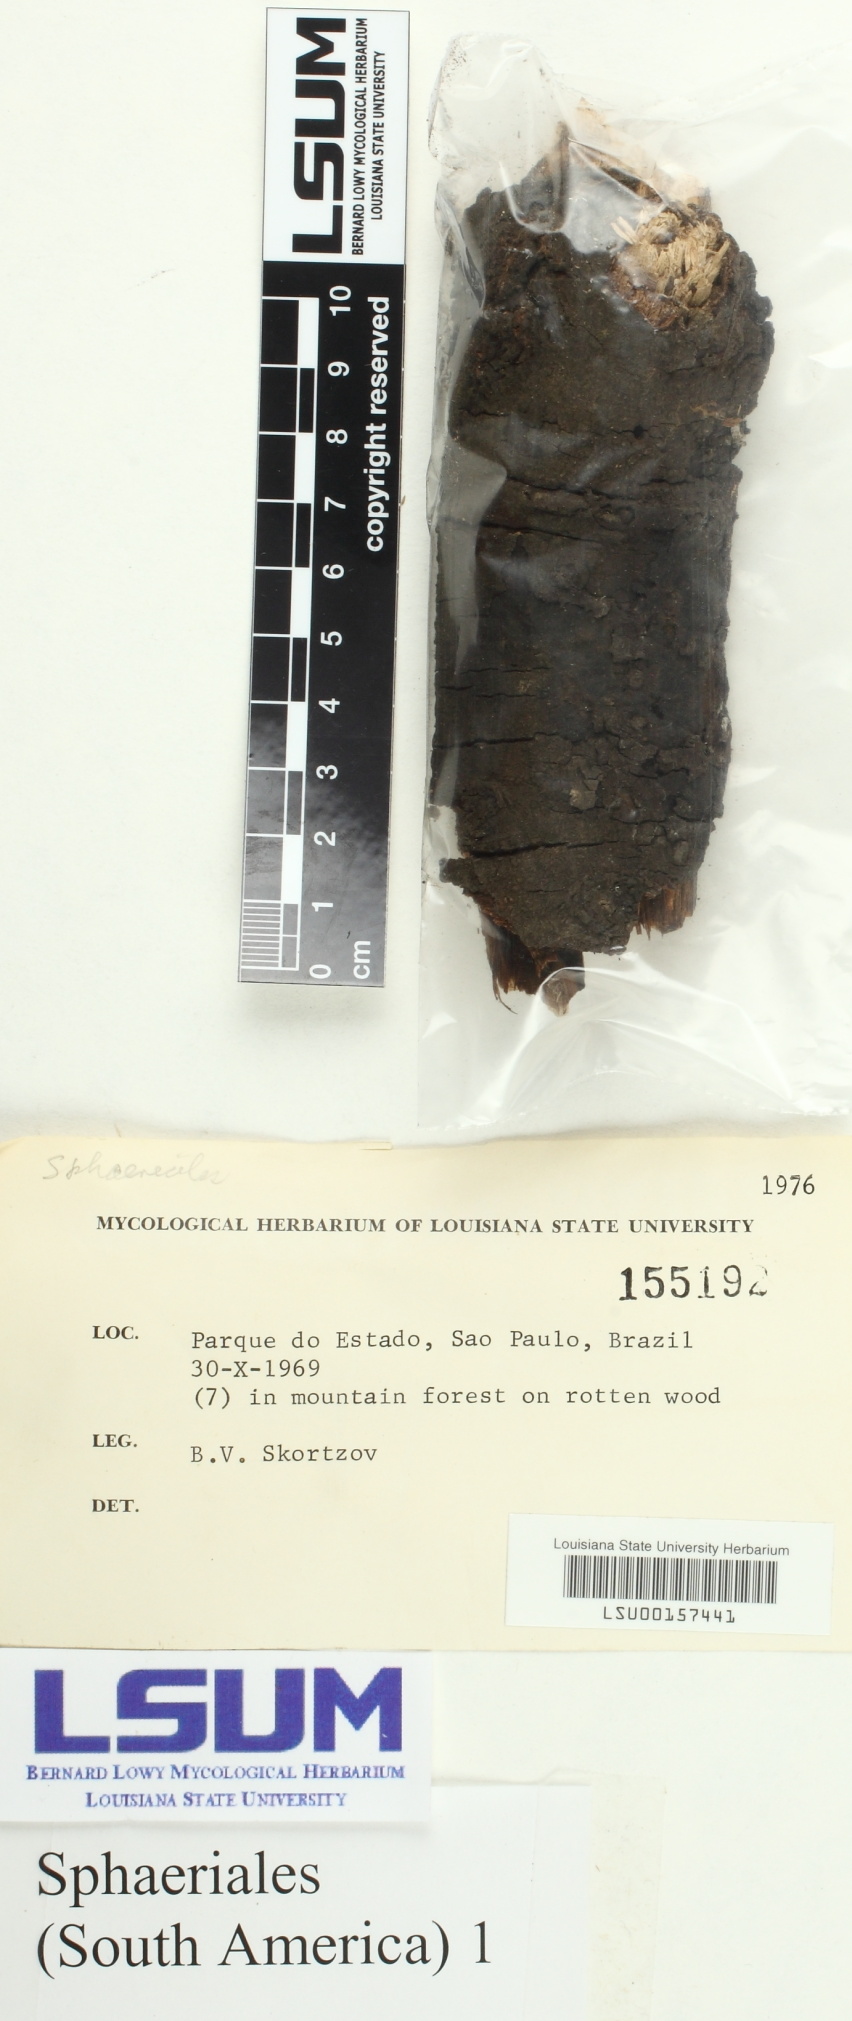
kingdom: Fungi
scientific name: Fungi
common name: Fungi
